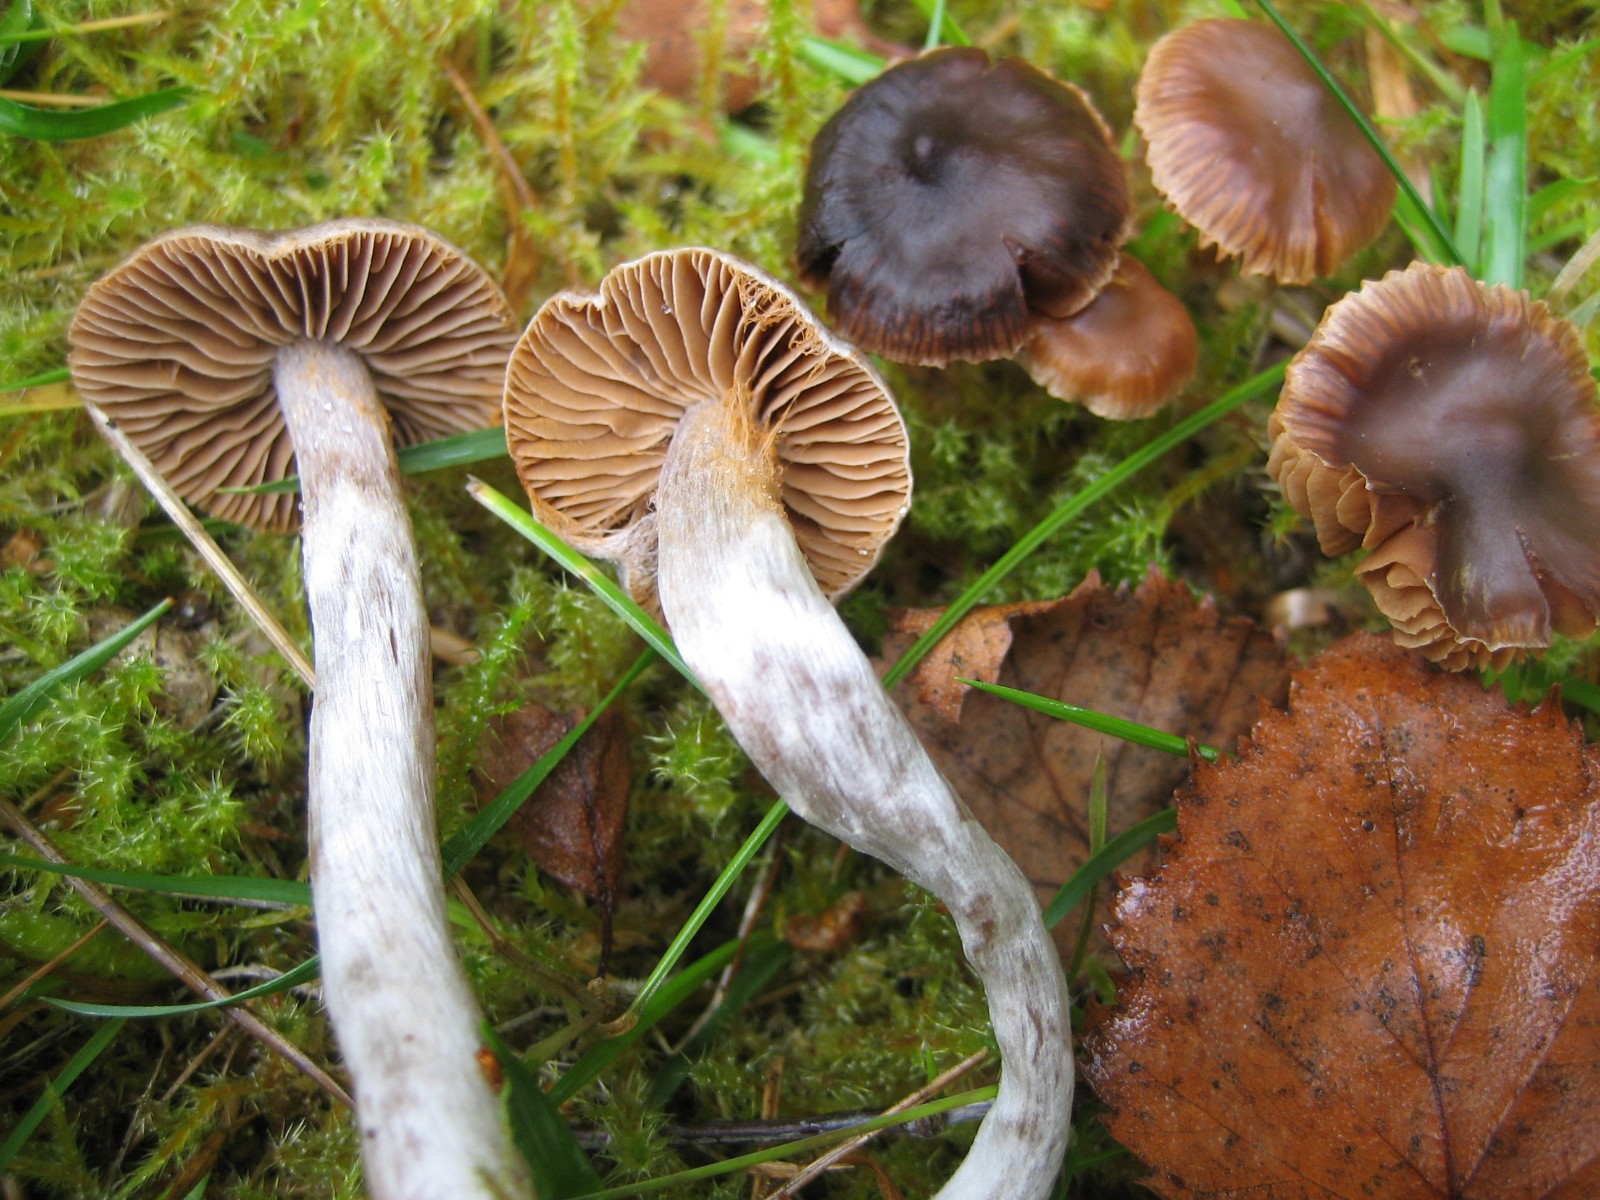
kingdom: Fungi
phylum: Basidiomycota
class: Agaricomycetes
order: Agaricales
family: Cortinariaceae
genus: Cortinarius
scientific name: Cortinarius
